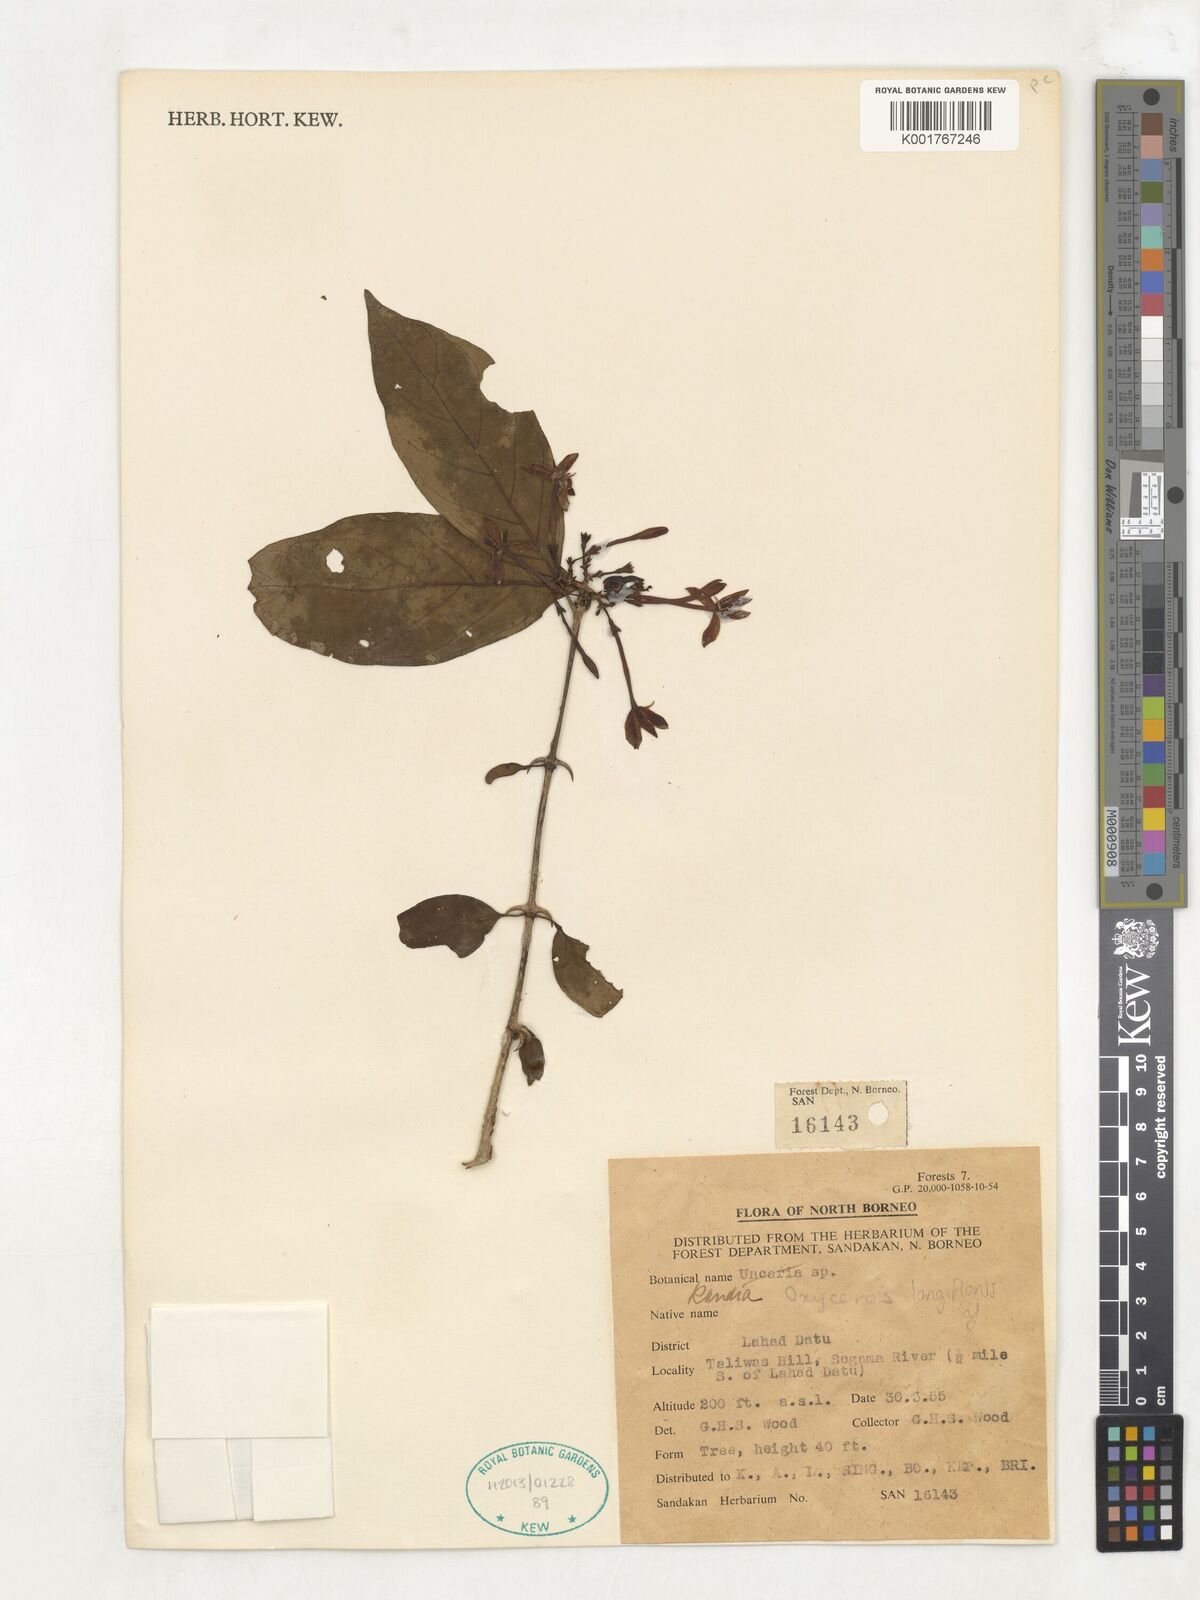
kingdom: Plantae
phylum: Tracheophyta
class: Magnoliopsida
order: Gentianales
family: Rubiaceae
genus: Oxyceros
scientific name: Oxyceros longiflorus
